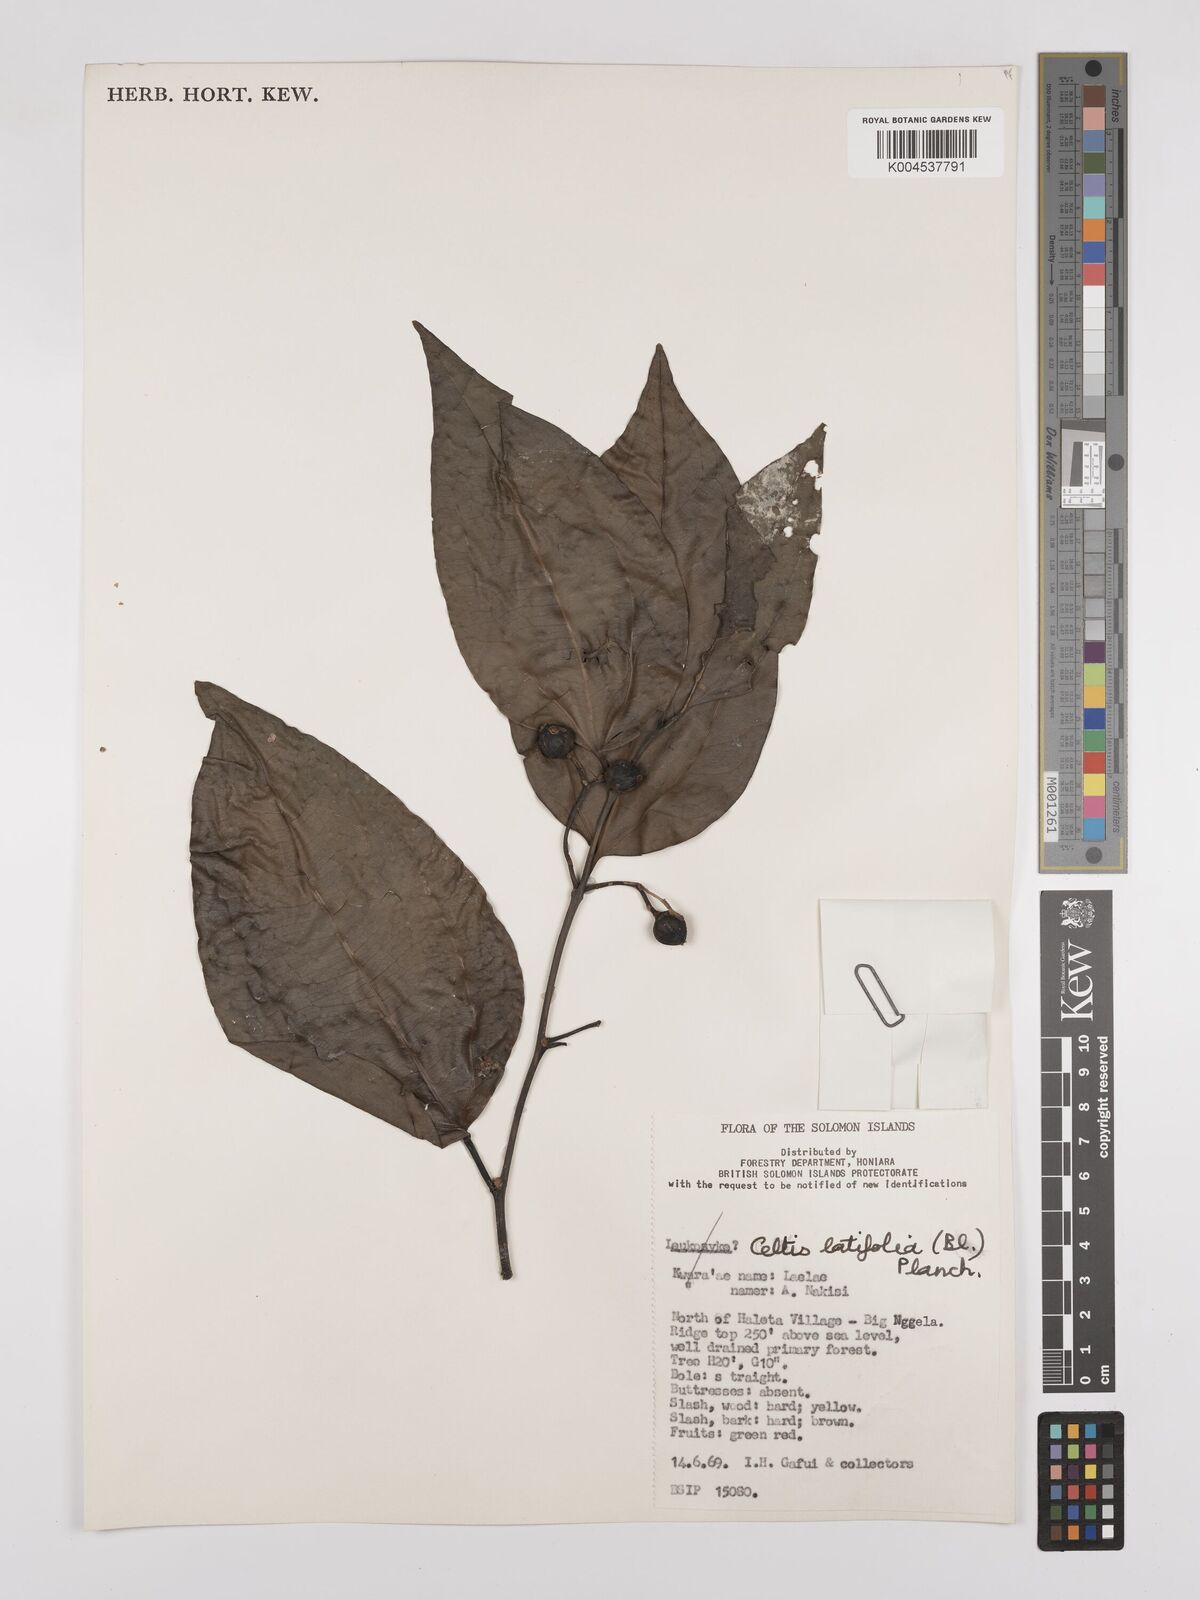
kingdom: Plantae
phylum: Tracheophyta
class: Magnoliopsida
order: Rosales
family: Cannabaceae
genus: Celtis
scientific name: Celtis latifolia
